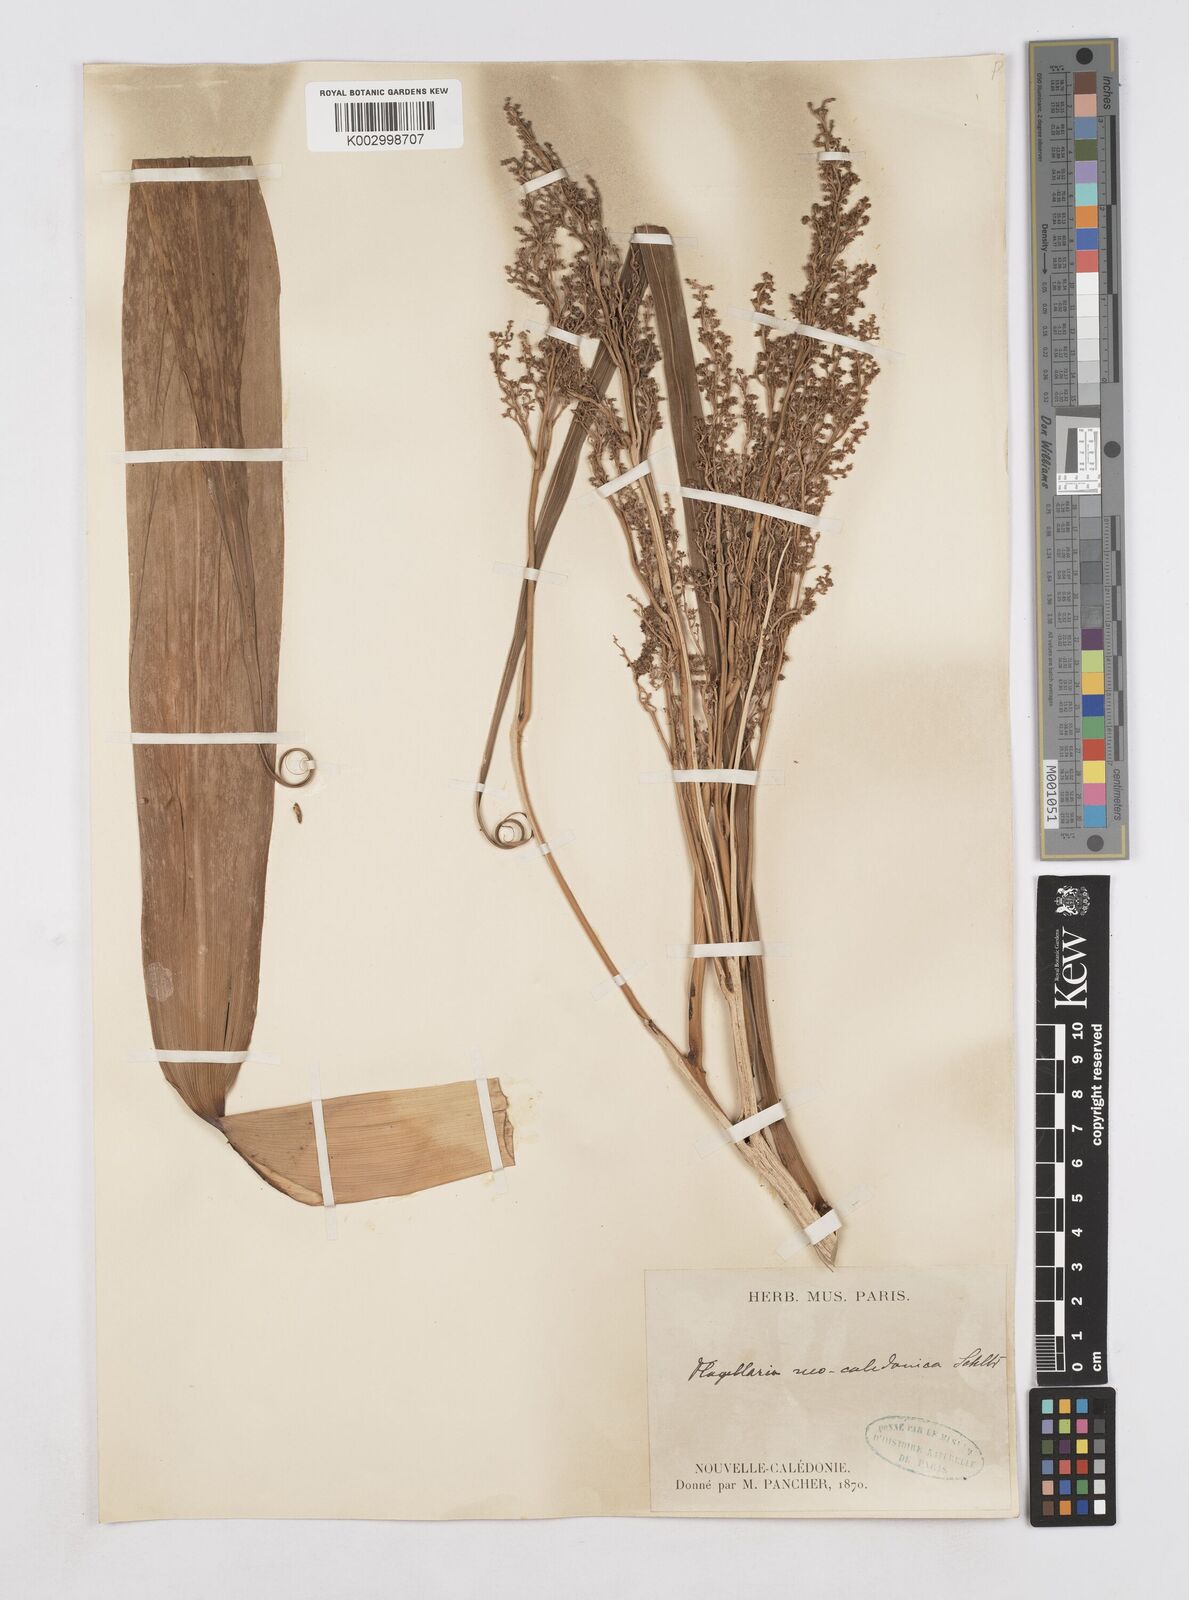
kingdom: Plantae
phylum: Tracheophyta
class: Liliopsida
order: Poales
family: Flagellariaceae
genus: Flagellaria
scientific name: Flagellaria neocaledonica
